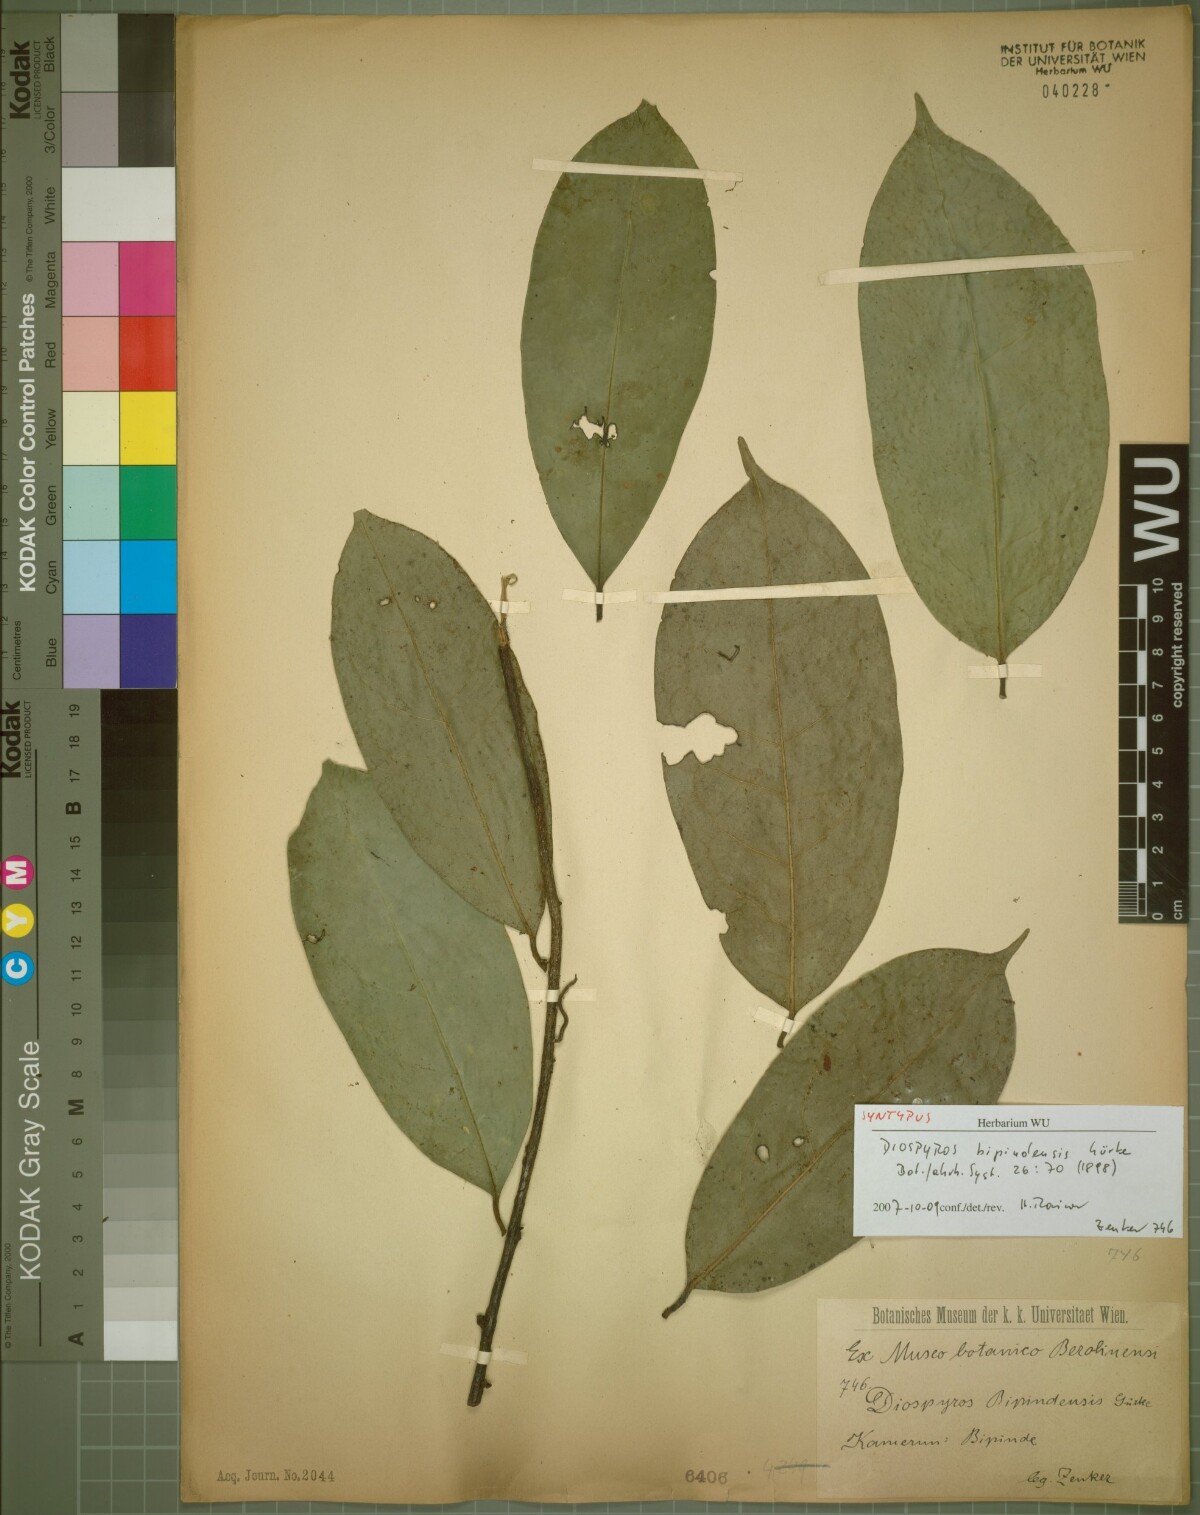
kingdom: Plantae
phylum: Tracheophyta
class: Magnoliopsida
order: Ericales
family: Ebenaceae
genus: Diospyros
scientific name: Diospyros bipindensis
